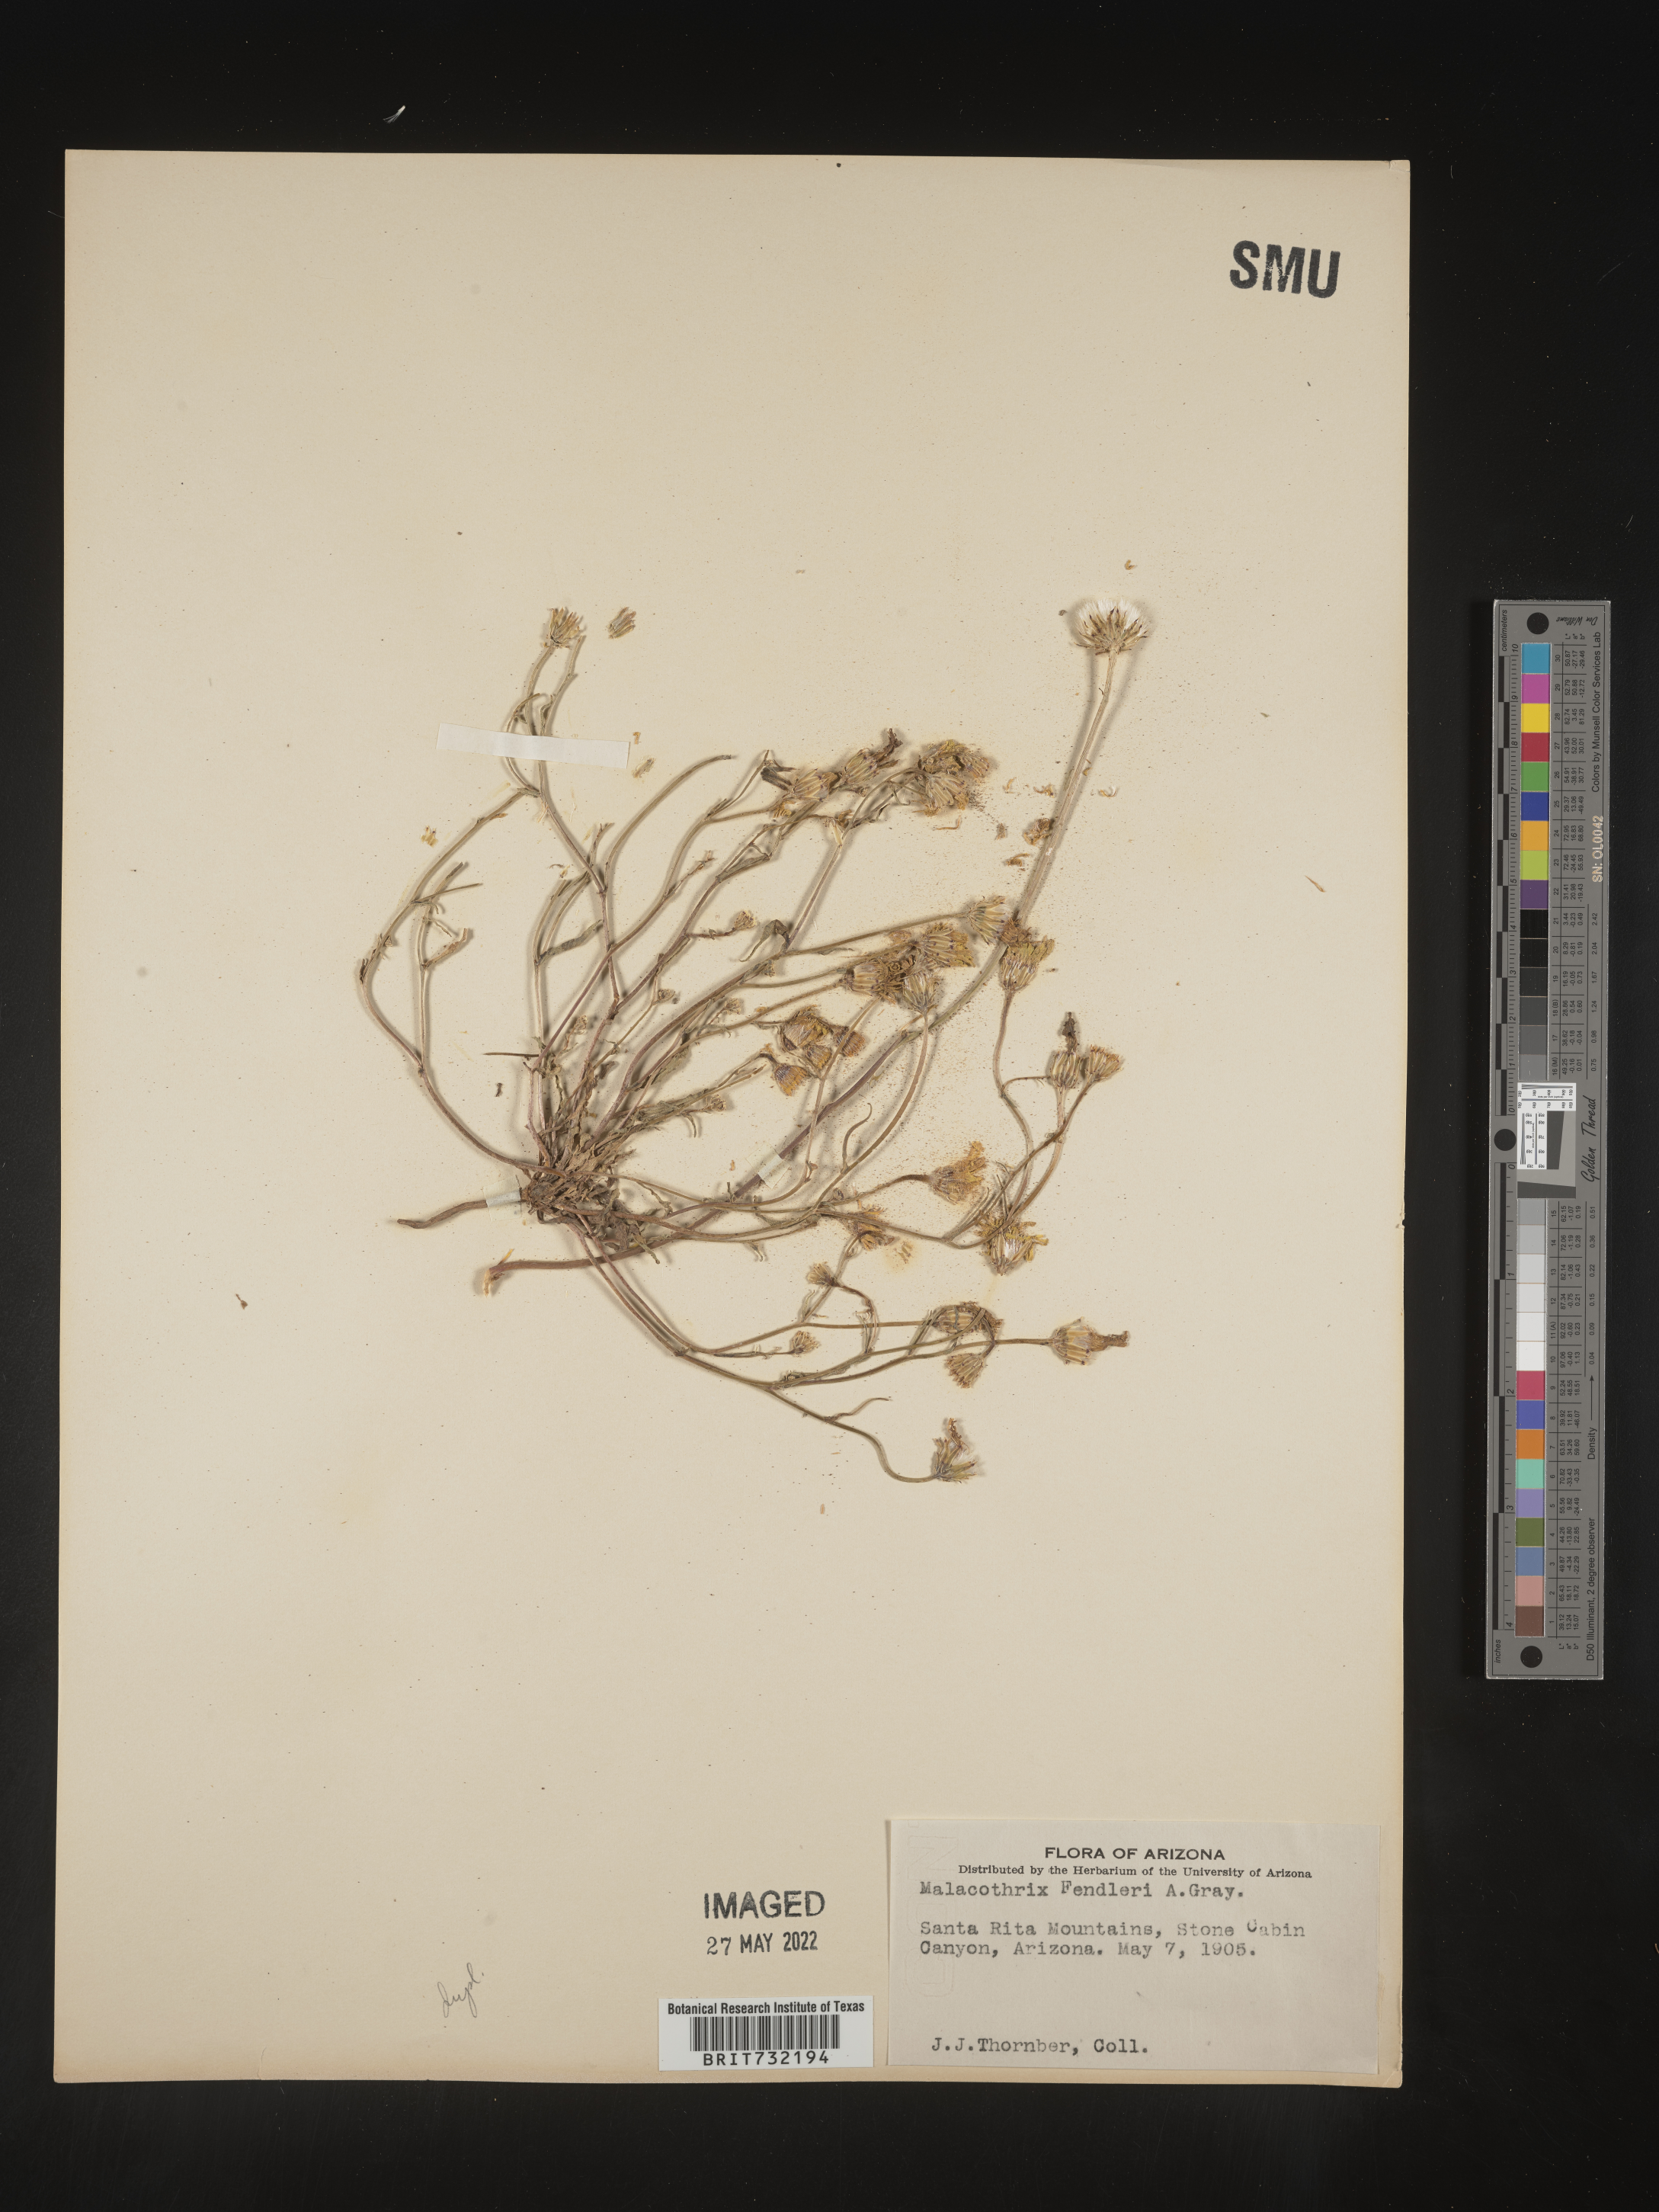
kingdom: Plantae
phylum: Tracheophyta
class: Magnoliopsida
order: Asterales
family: Asteraceae
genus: Malacothrix
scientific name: Malacothrix
